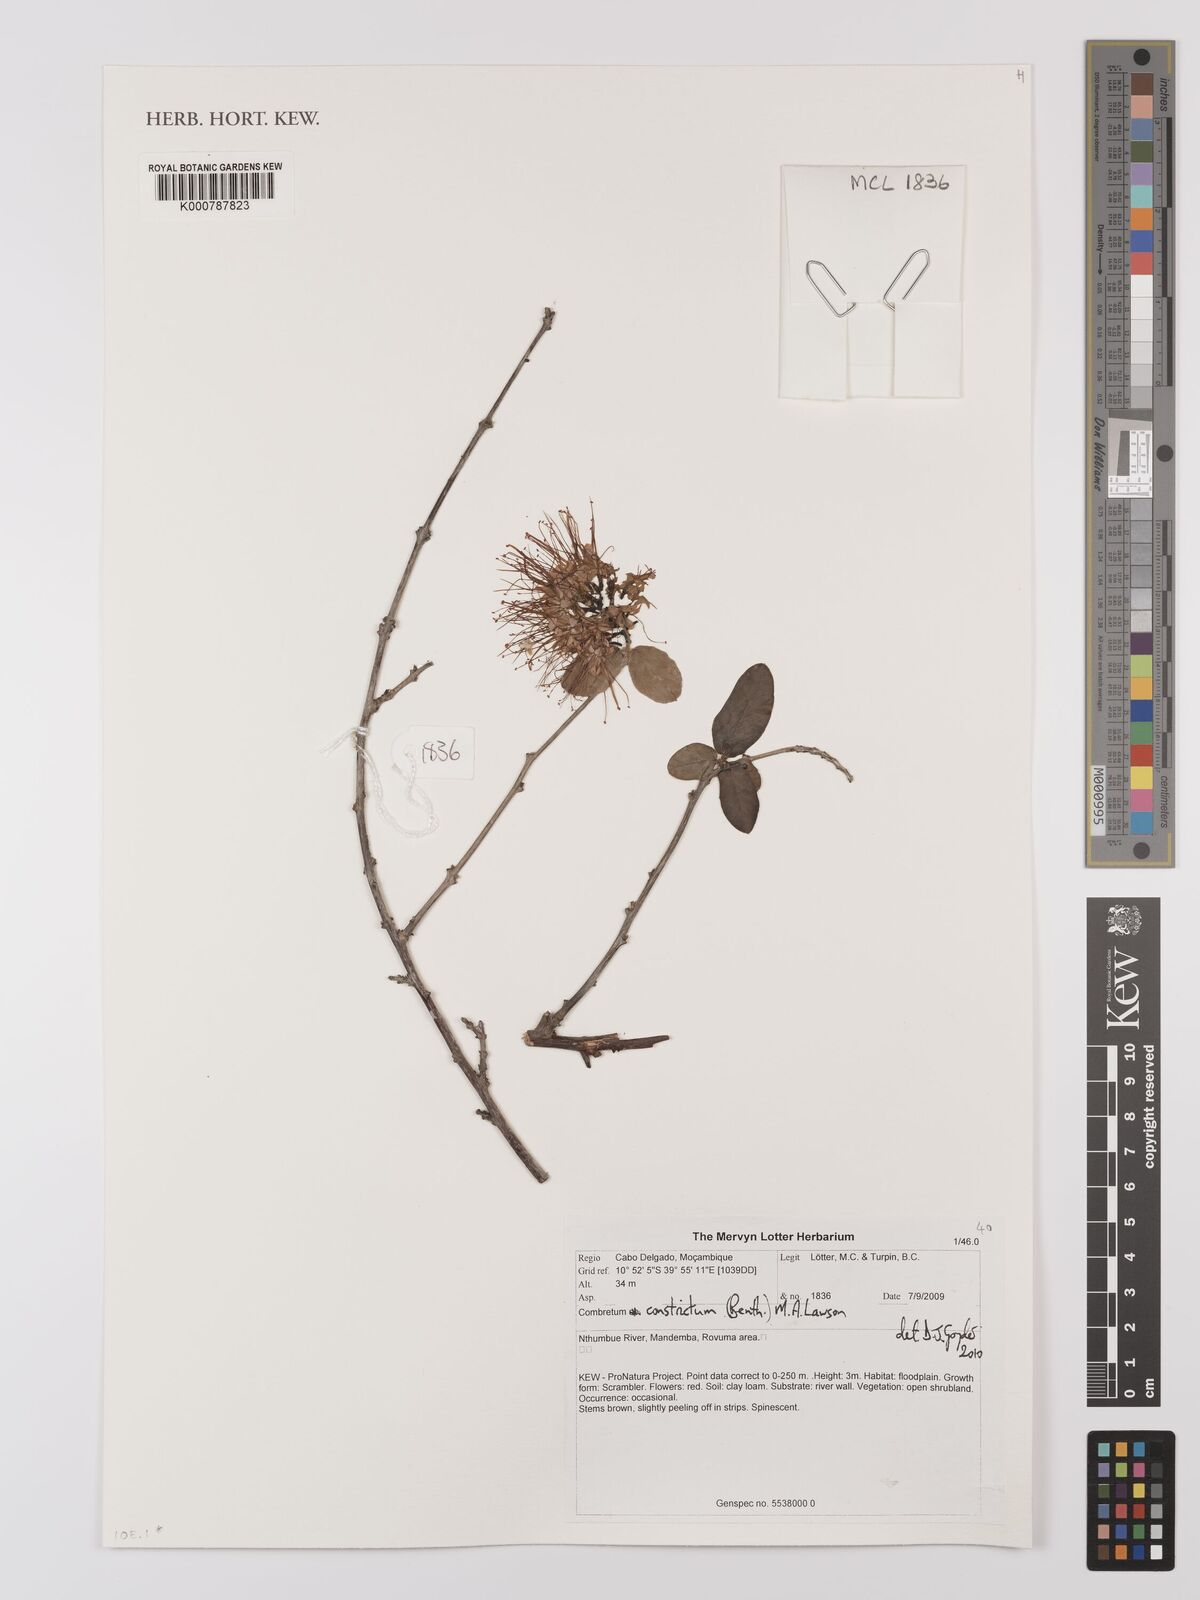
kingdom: Plantae
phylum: Tracheophyta
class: Magnoliopsida
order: Myrtales
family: Combretaceae
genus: Combretum
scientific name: Combretum constrictum
